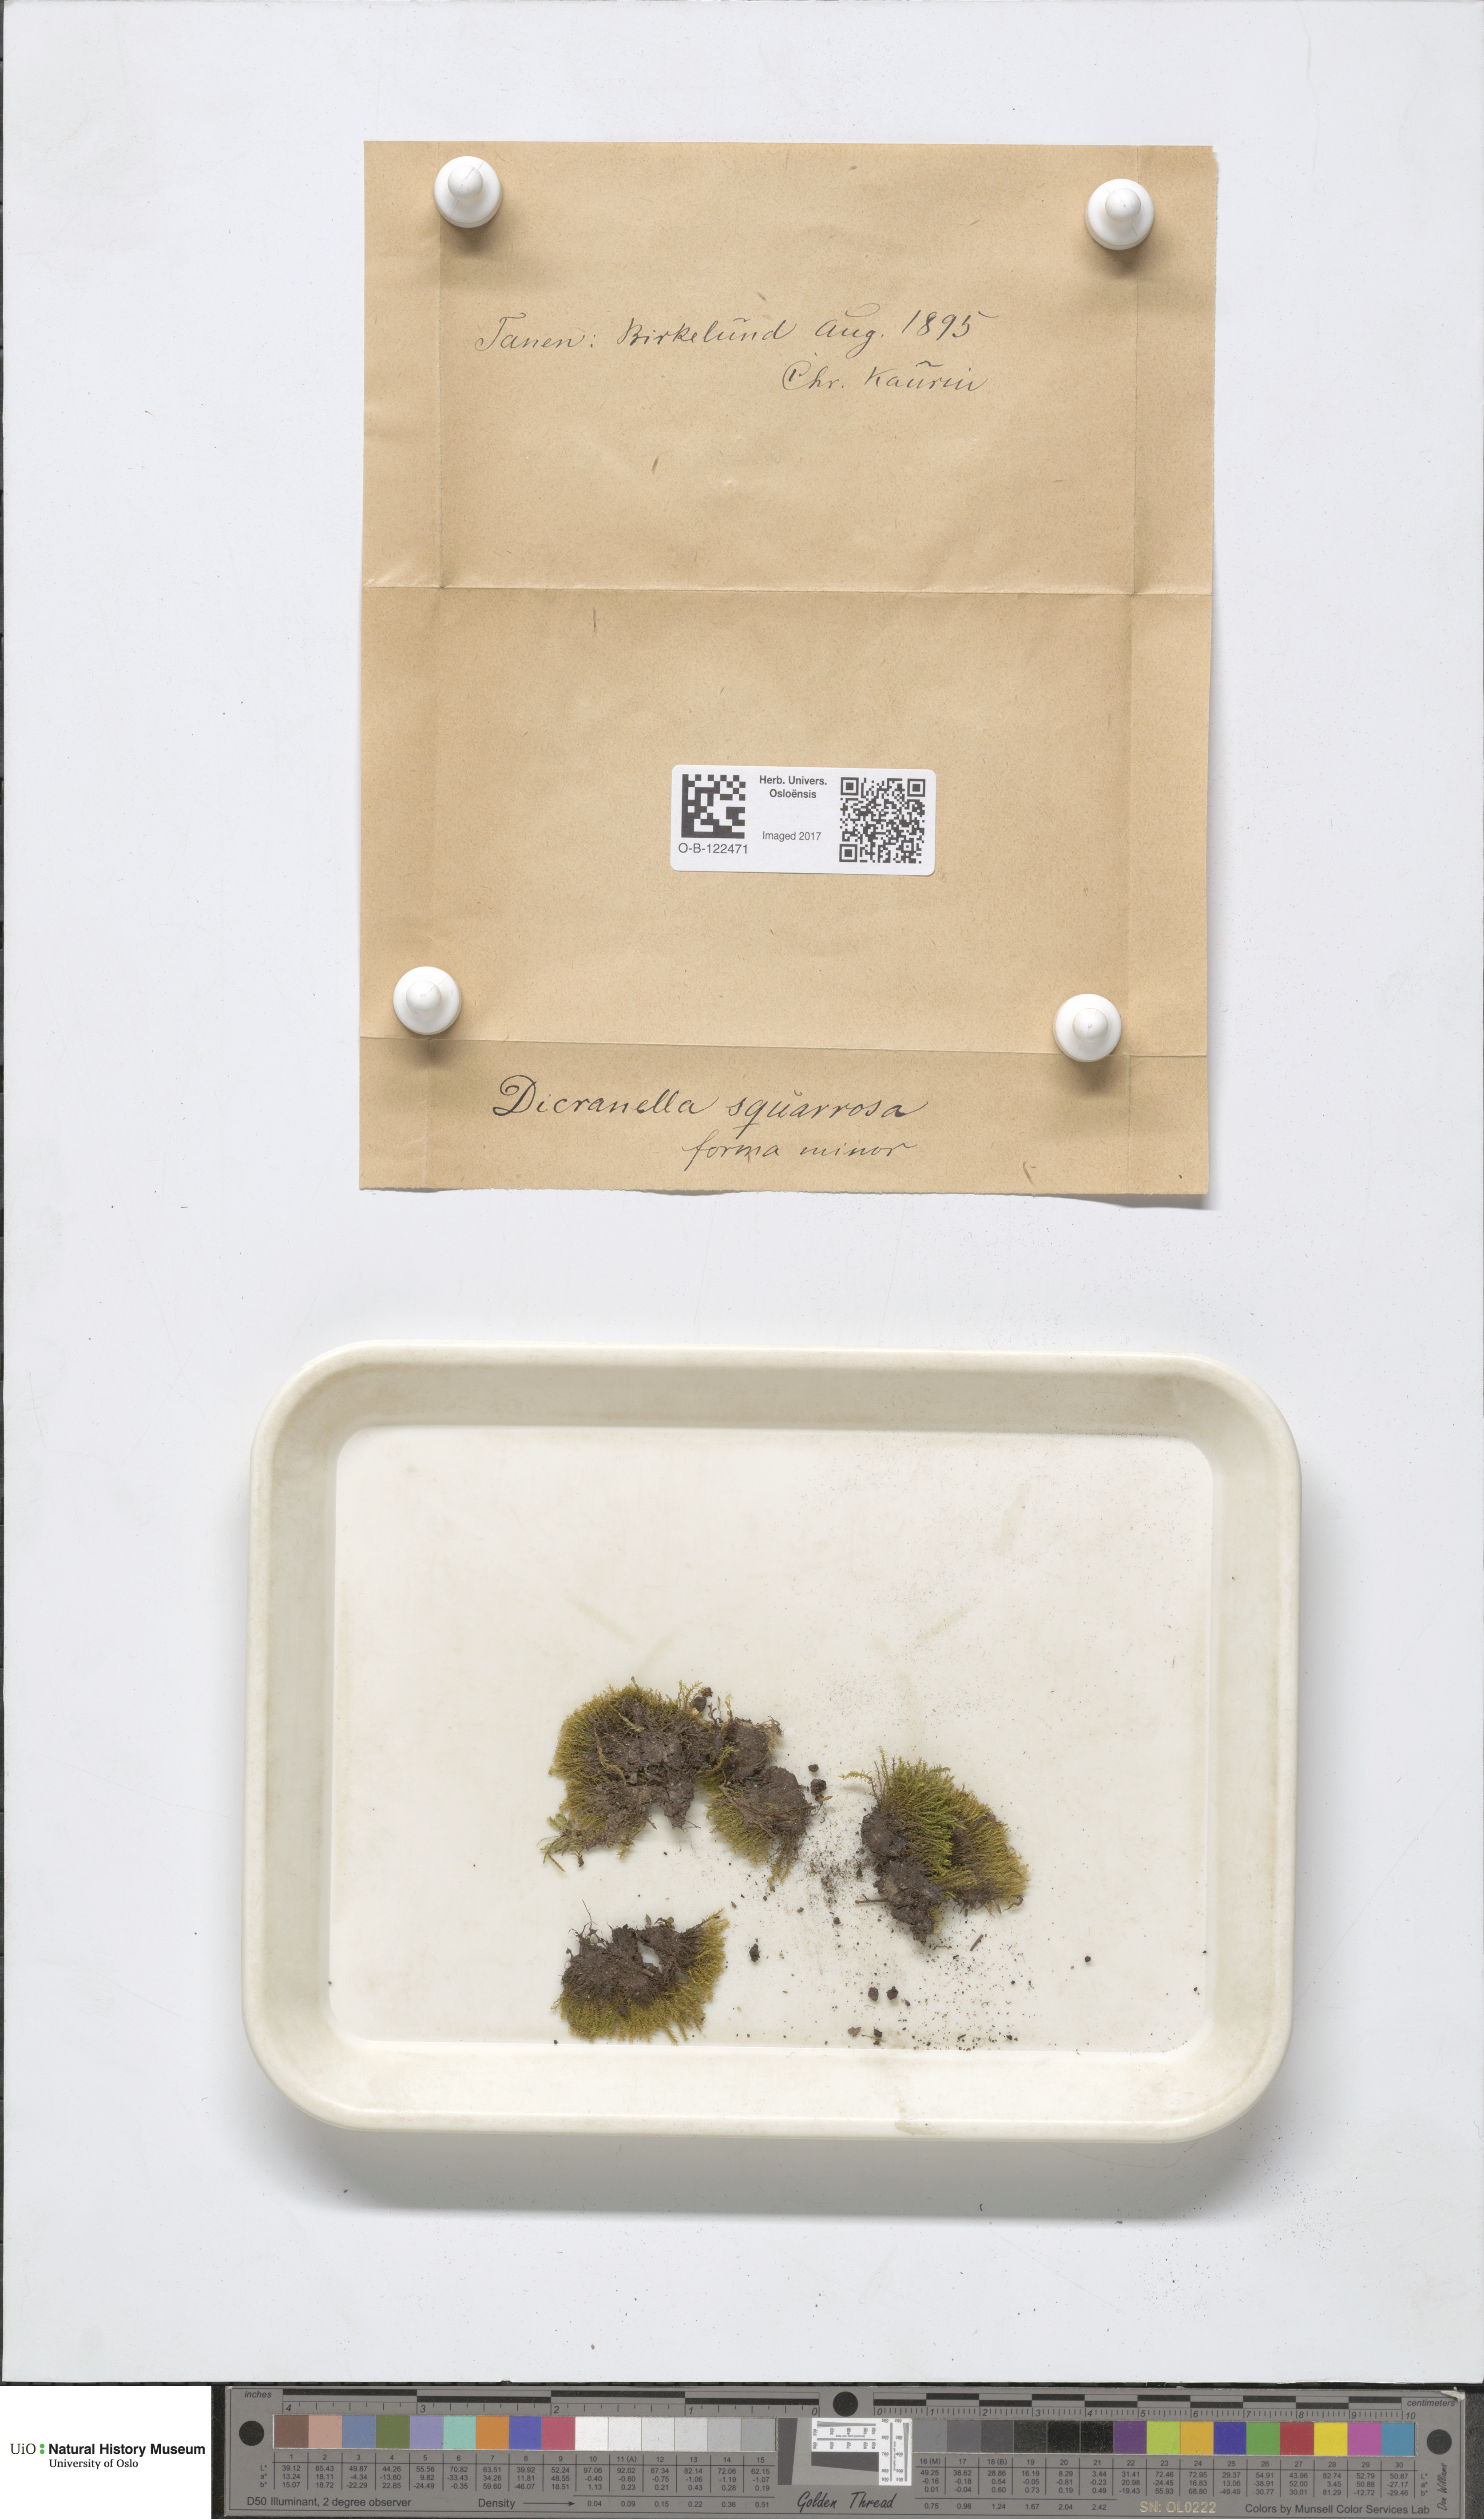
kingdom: Plantae
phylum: Bryophyta
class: Bryopsida
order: Dicranales
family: Aongstroemiaceae
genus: Diobelonella
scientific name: Diobelonella palustris
